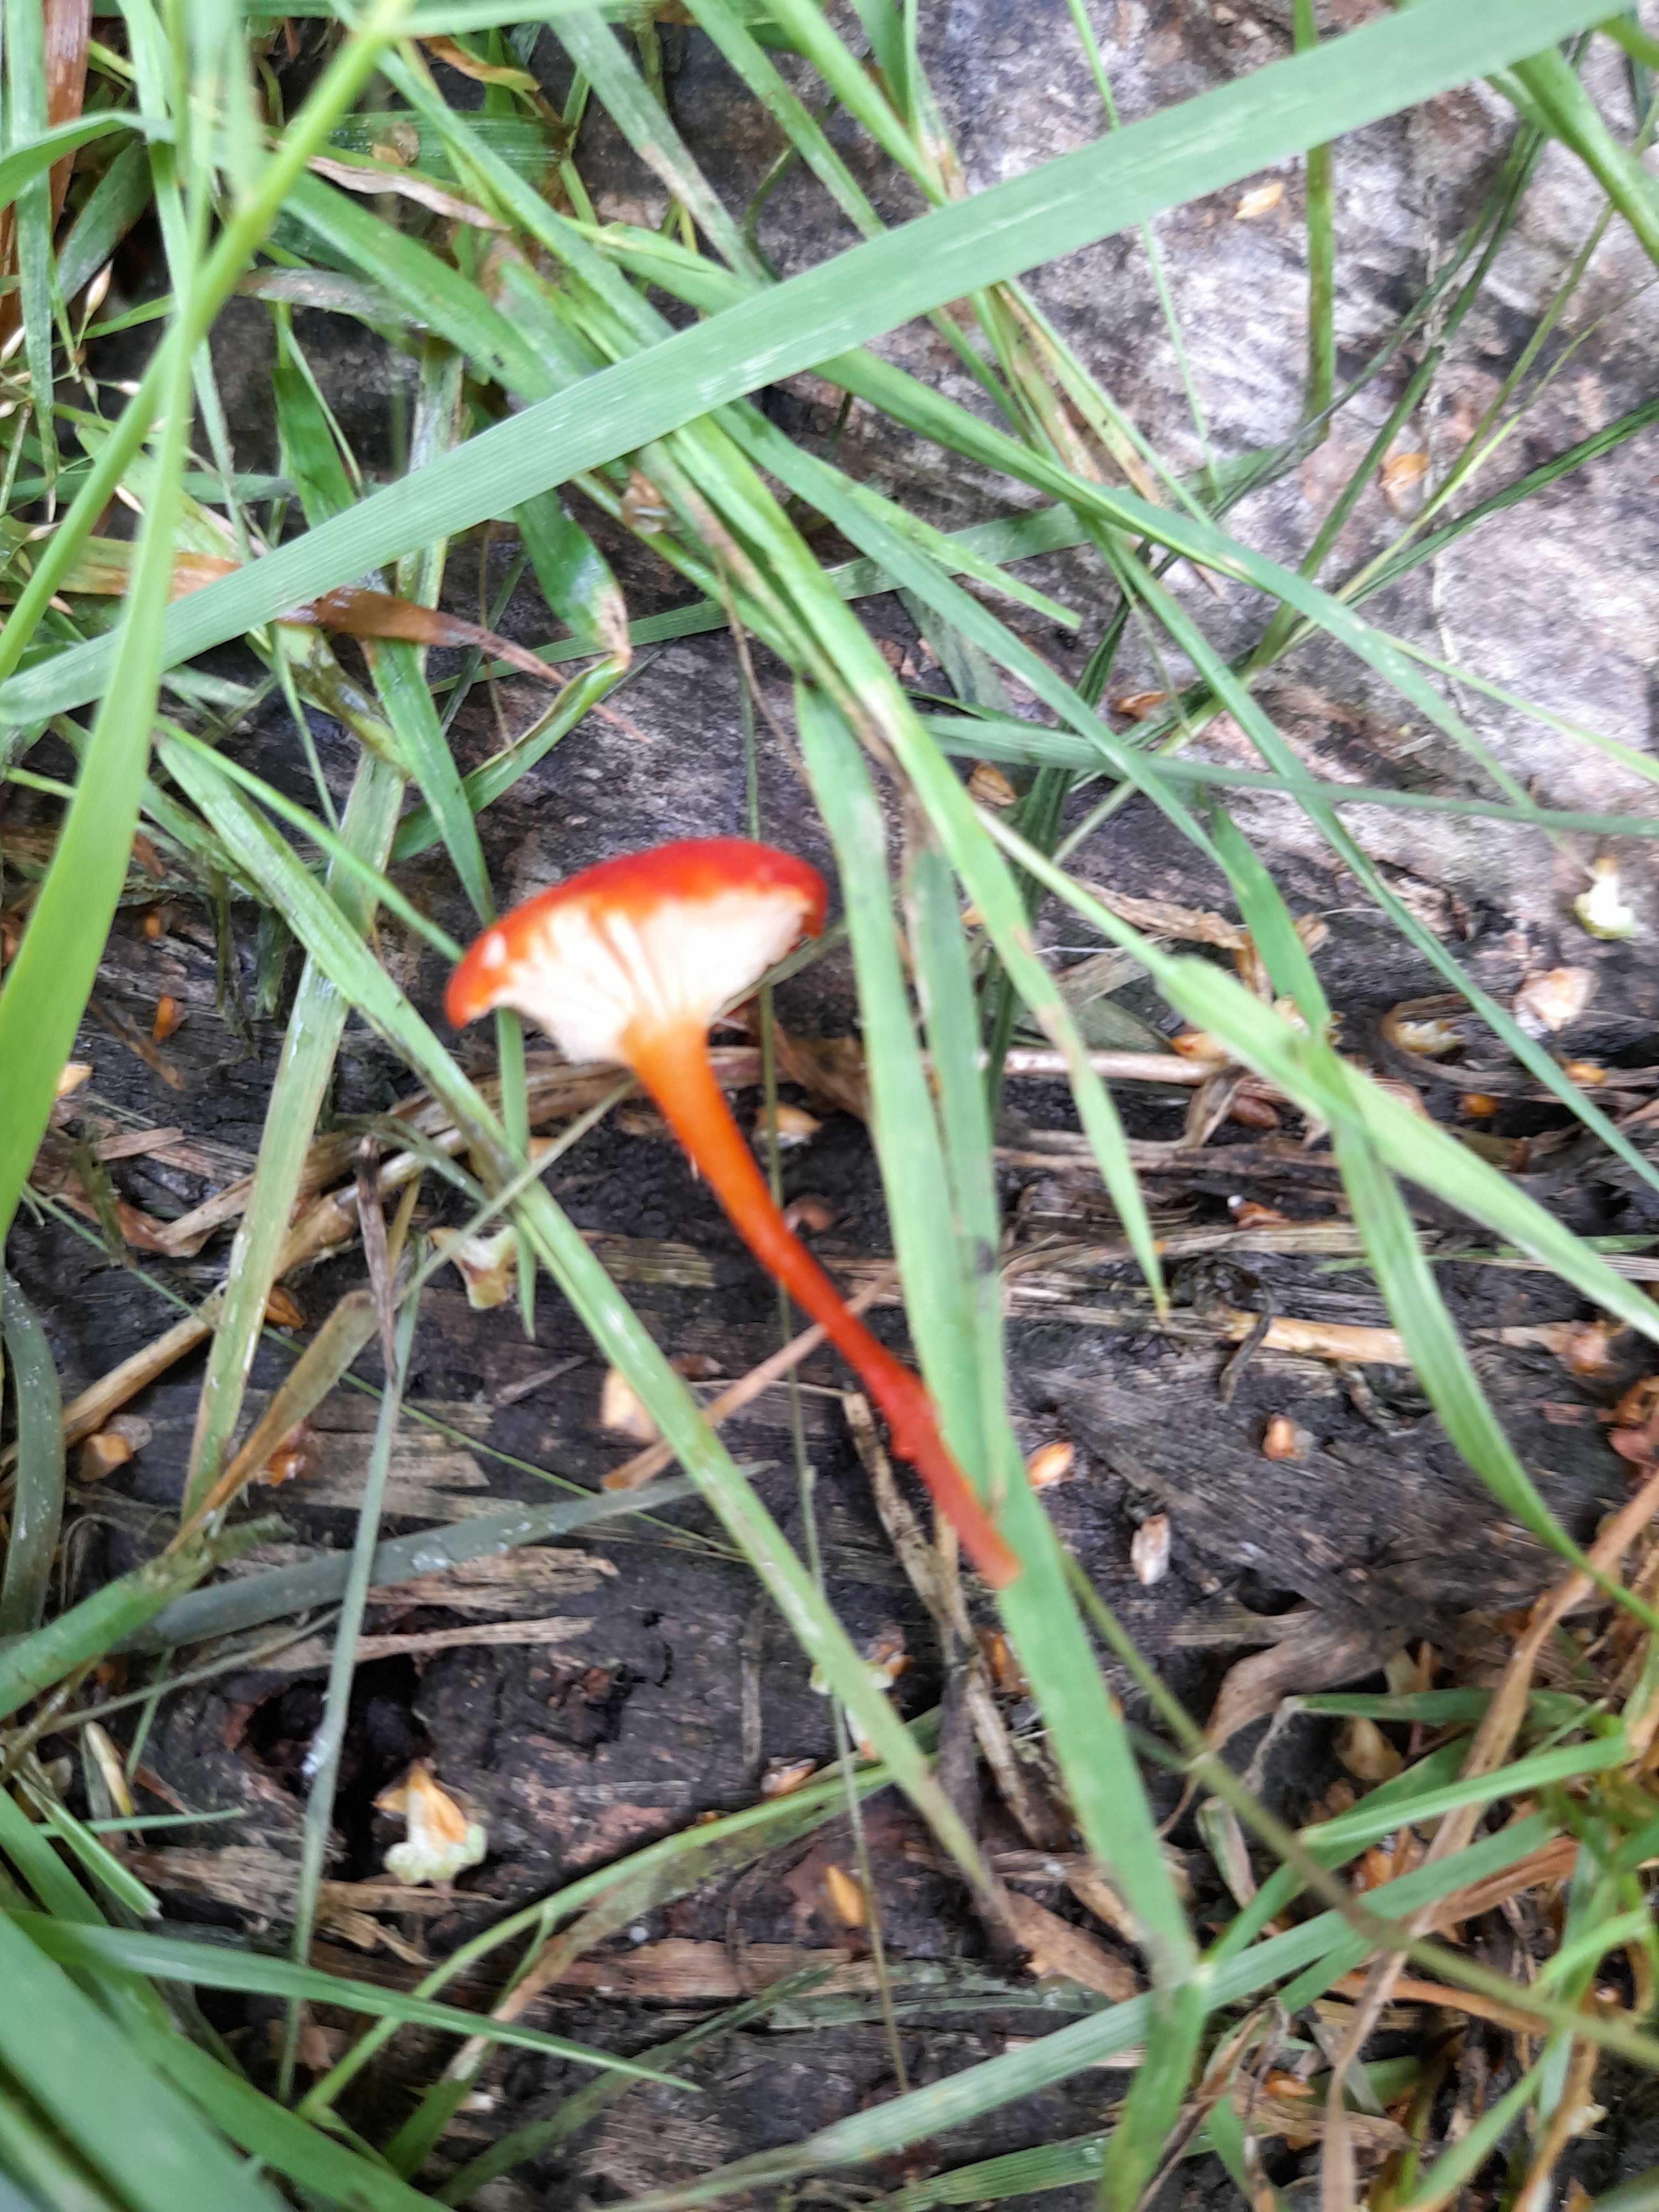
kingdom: Fungi
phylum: Basidiomycota
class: Agaricomycetes
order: Agaricales
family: Hygrophoraceae
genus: Hygrocybe
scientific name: Hygrocybe coccineocrenata
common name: tørvemos-vokshat
